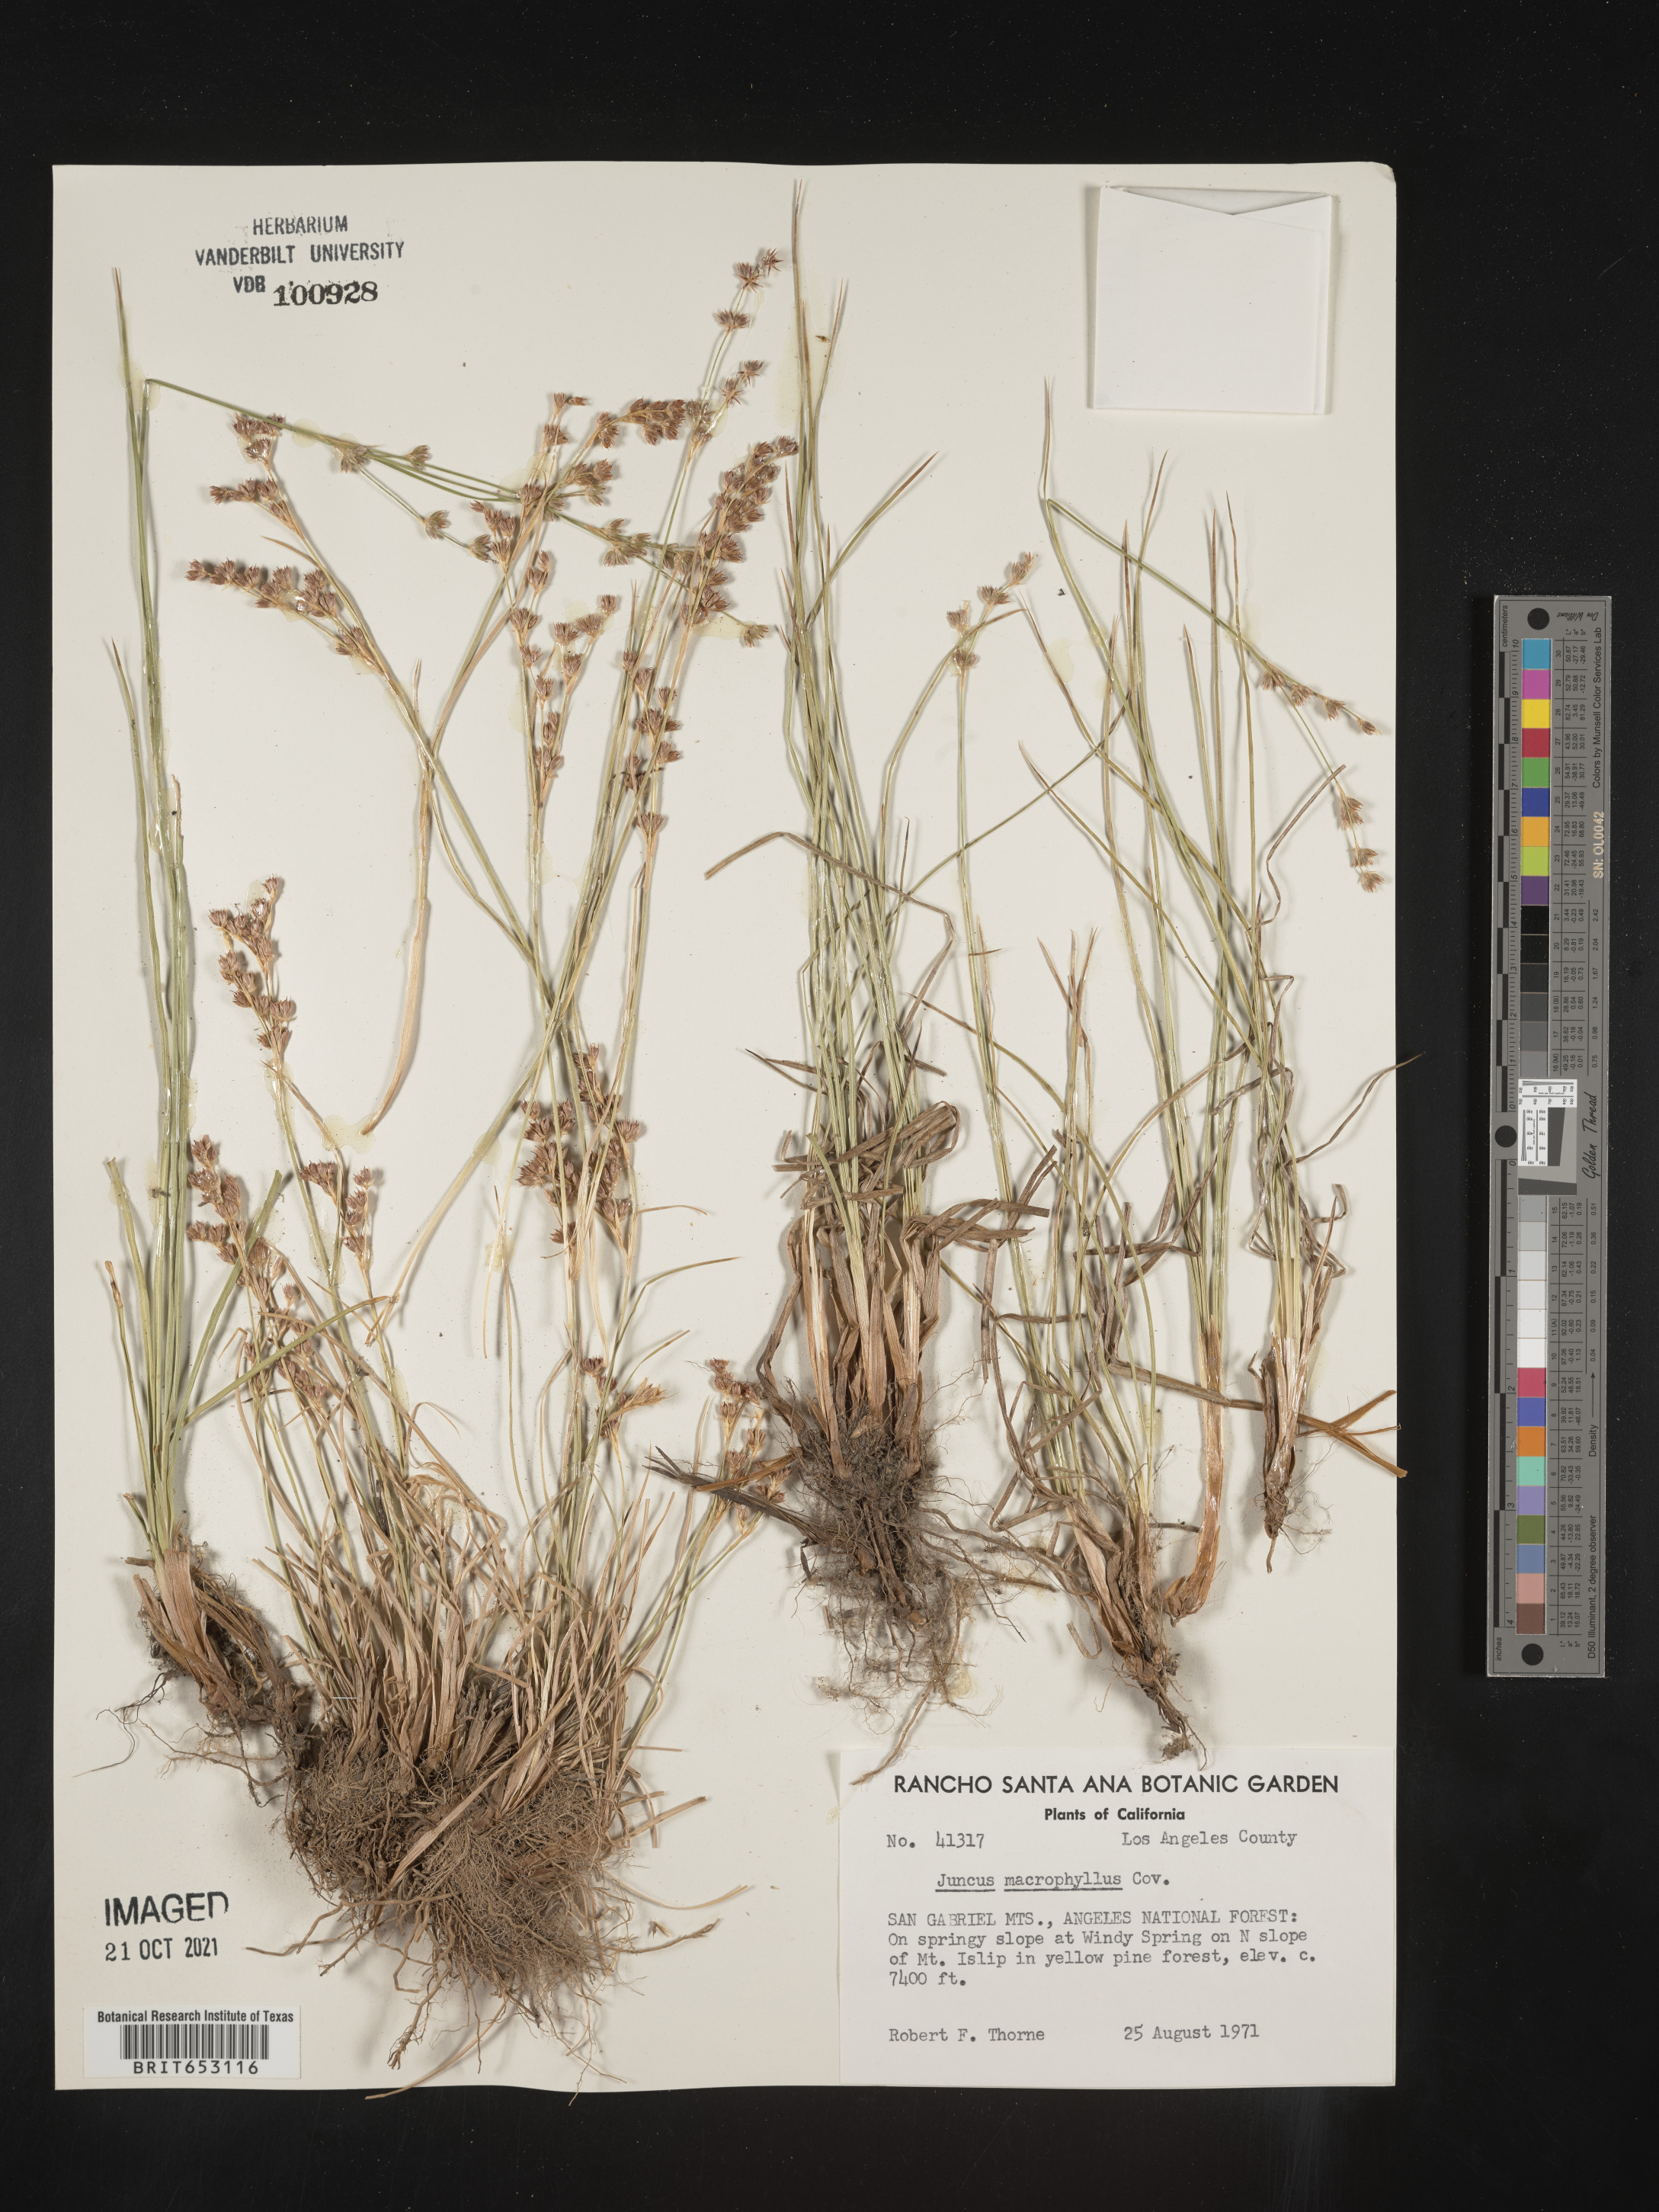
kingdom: Plantae
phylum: Tracheophyta
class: Liliopsida
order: Poales
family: Juncaceae
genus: Juncus
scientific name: Juncus macrophyllus
